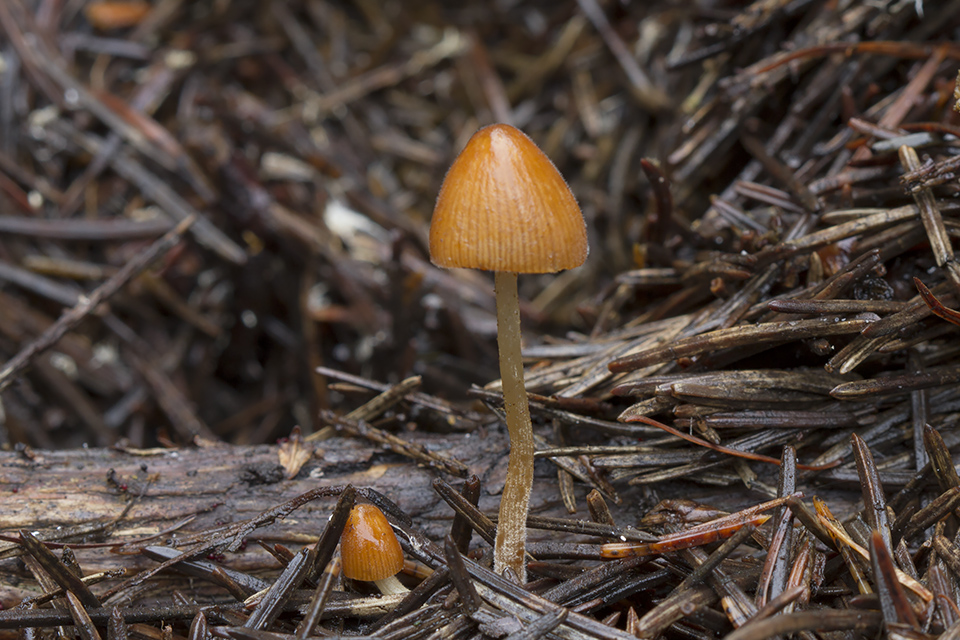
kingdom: Fungi
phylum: Basidiomycota
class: Agaricomycetes
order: Agaricales
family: Bolbitiaceae
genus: Conocybe
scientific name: Conocybe subpubescens
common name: krat-keglehat
